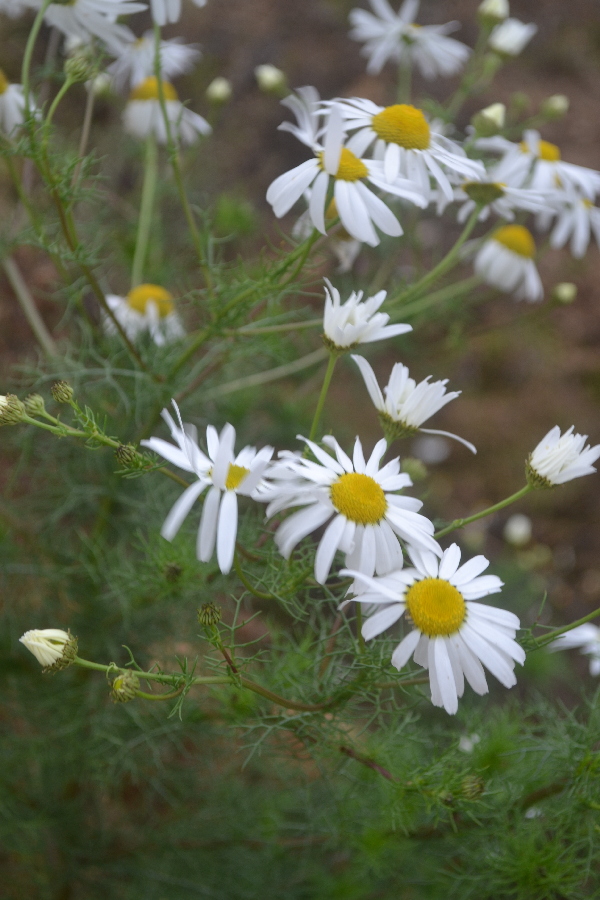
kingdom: Plantae
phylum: Tracheophyta
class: Magnoliopsida
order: Asterales
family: Asteraceae
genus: Tripleurospermum
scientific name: Tripleurospermum inodorum
